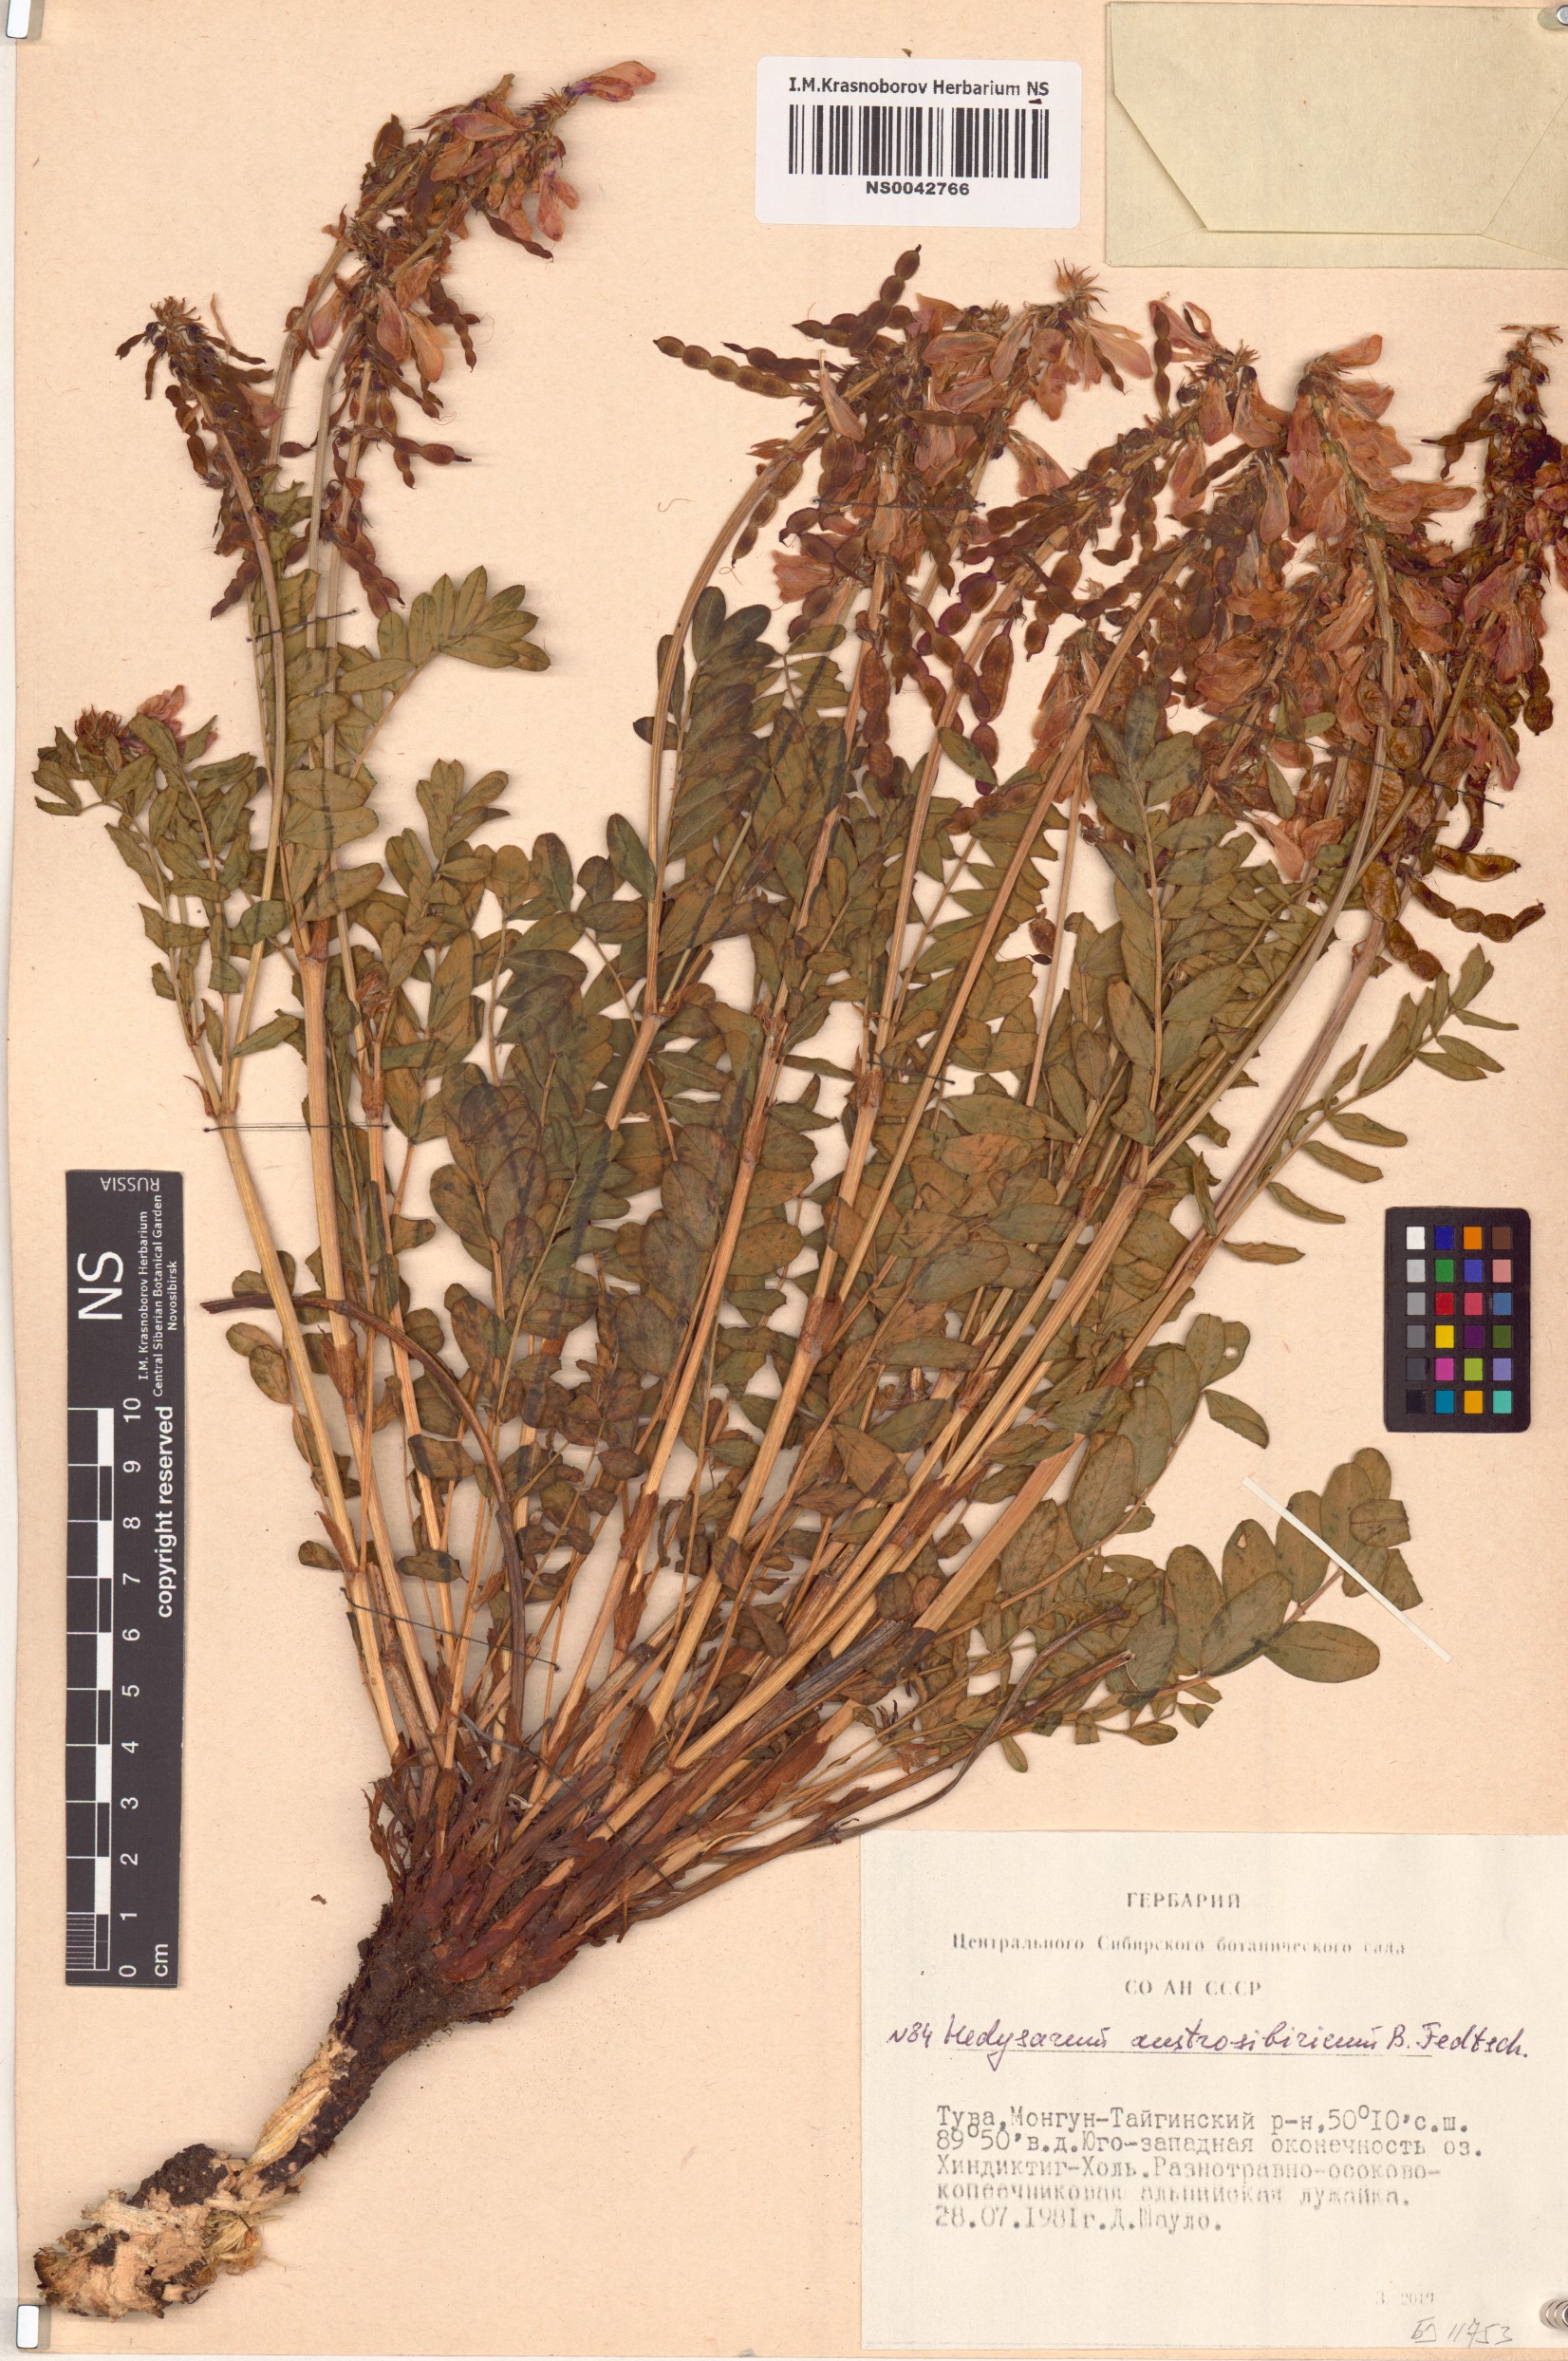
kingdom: Plantae
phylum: Tracheophyta
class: Magnoliopsida
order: Fabales
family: Fabaceae
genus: Hedysarum
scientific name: Hedysarum neglectum
